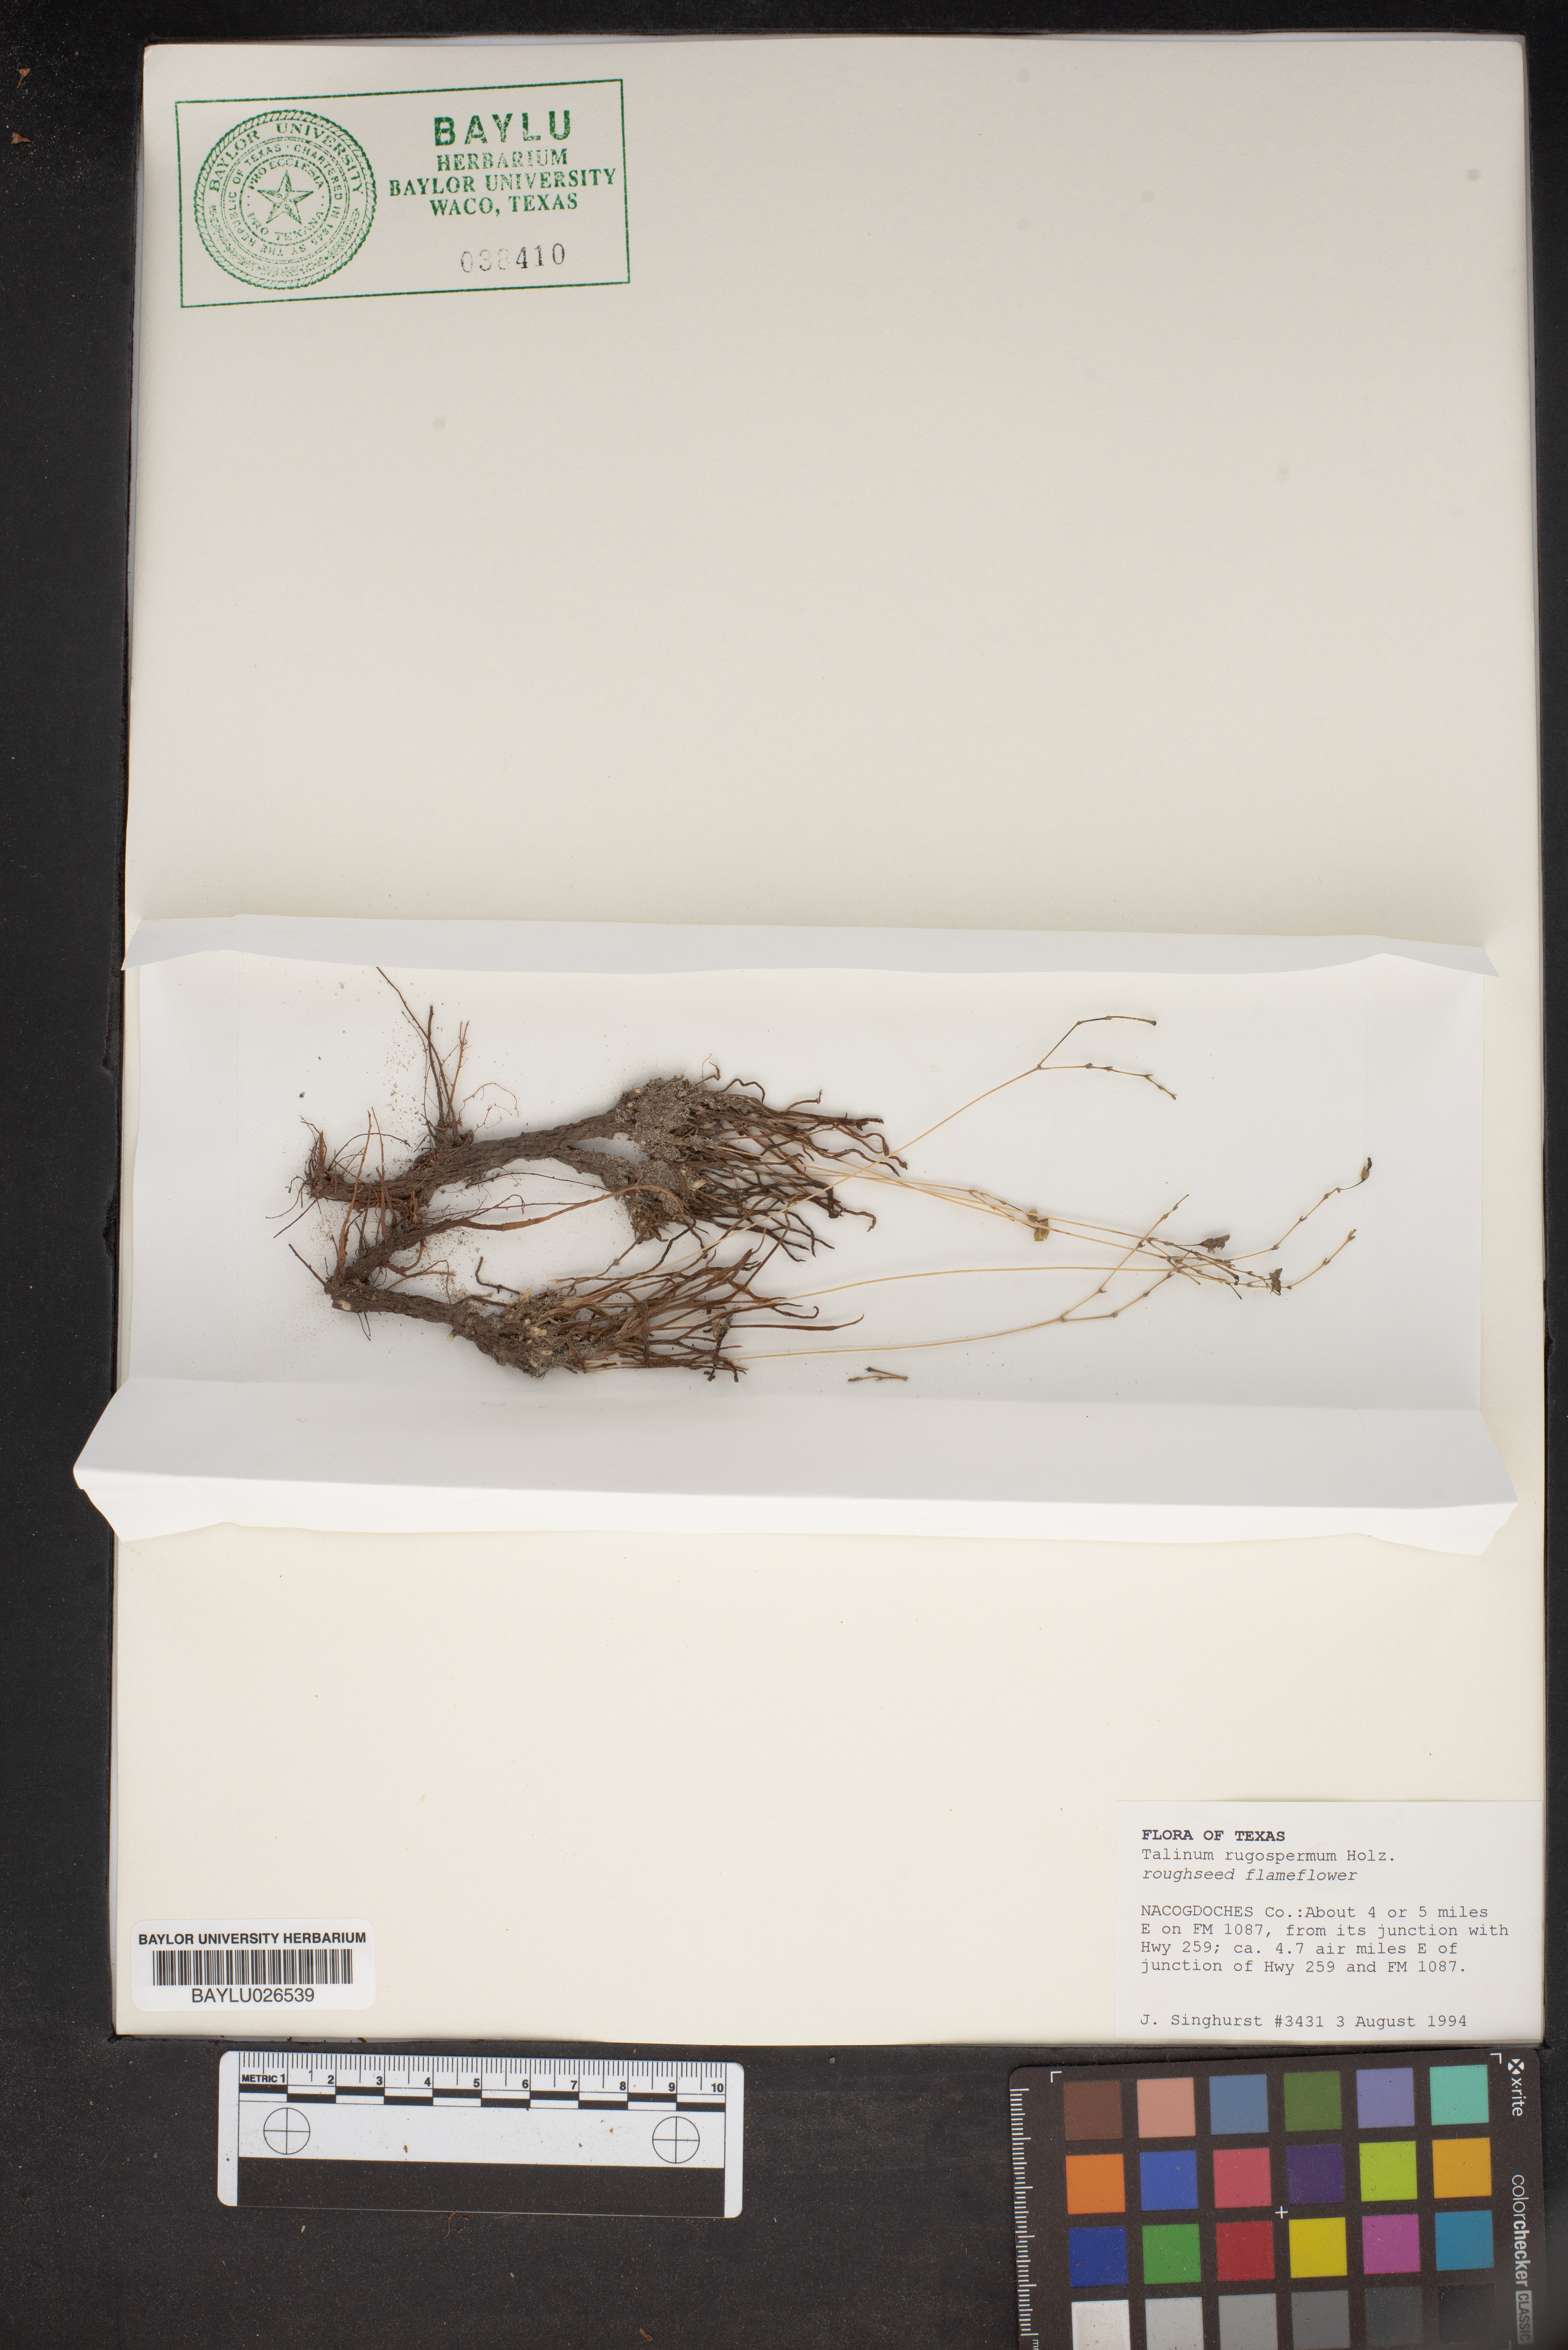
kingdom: Plantae
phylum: Tracheophyta
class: Magnoliopsida
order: Caryophyllales
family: Montiaceae
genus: Phemeranthus
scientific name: Phemeranthus rugospermus
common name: Prairie fameflower
